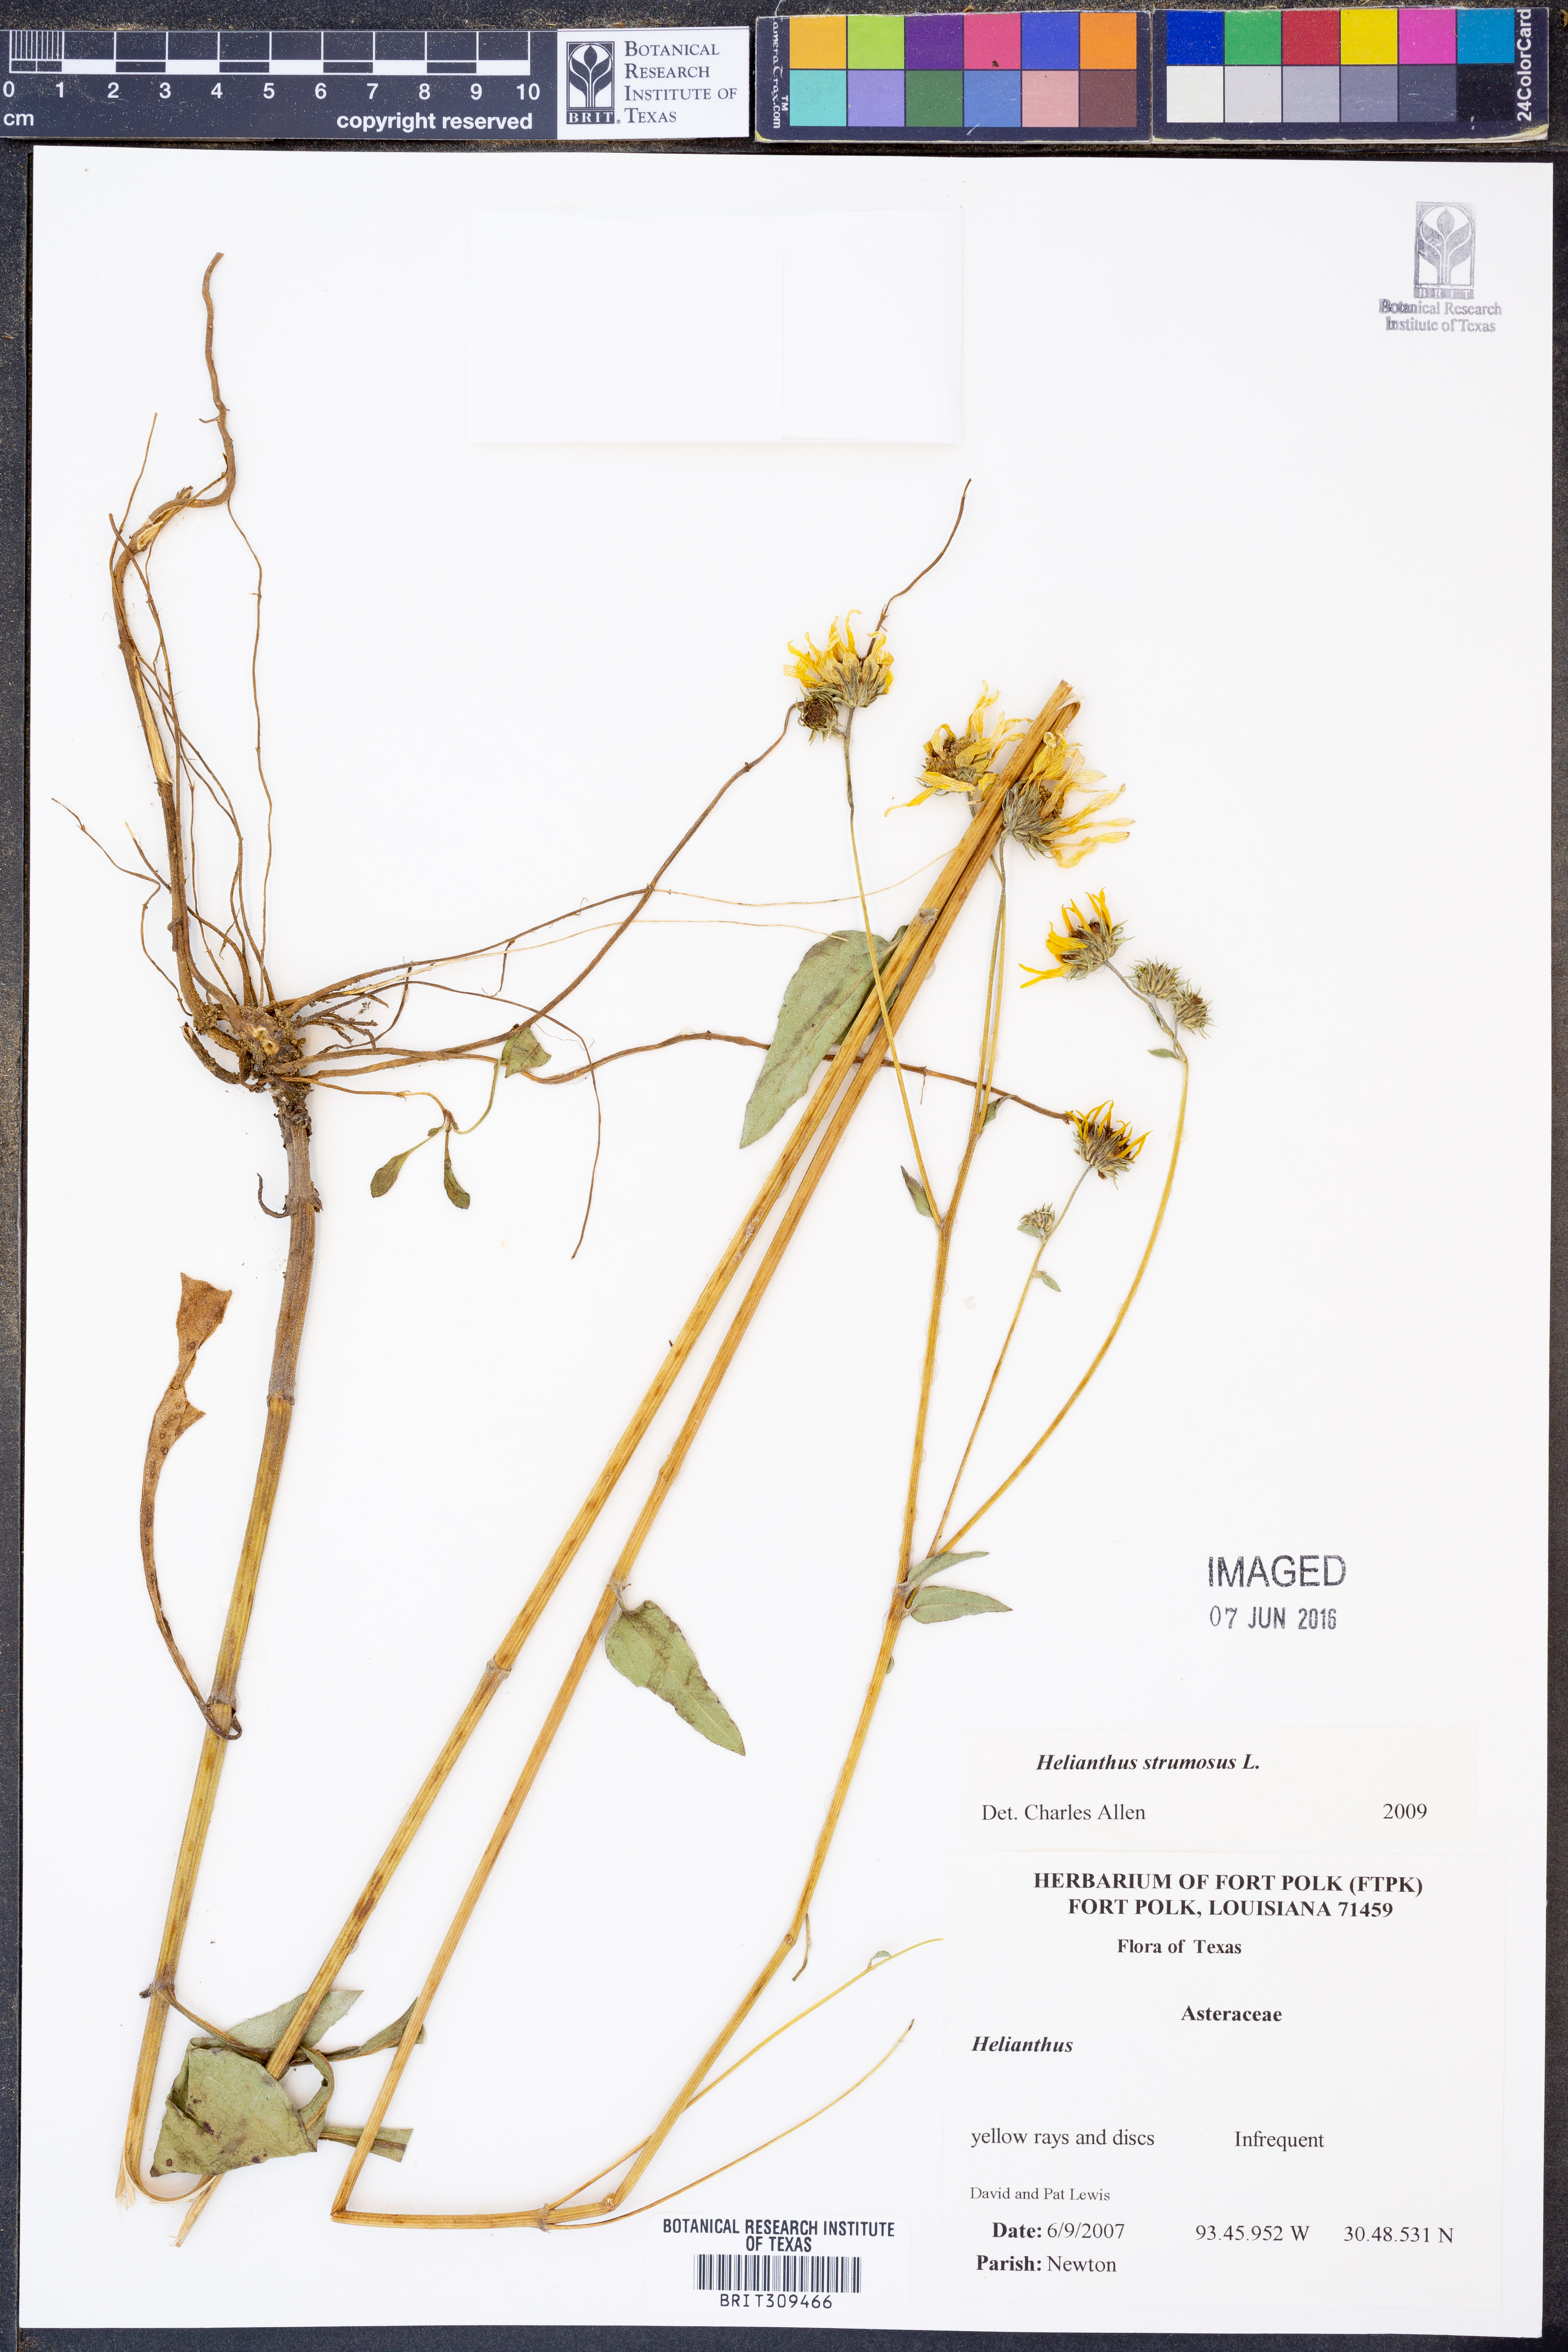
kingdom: Plantae
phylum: Tracheophyta
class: Magnoliopsida
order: Asterales
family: Asteraceae
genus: Helianthus
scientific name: Helianthus strumosus
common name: Pale-leaved sunflower
